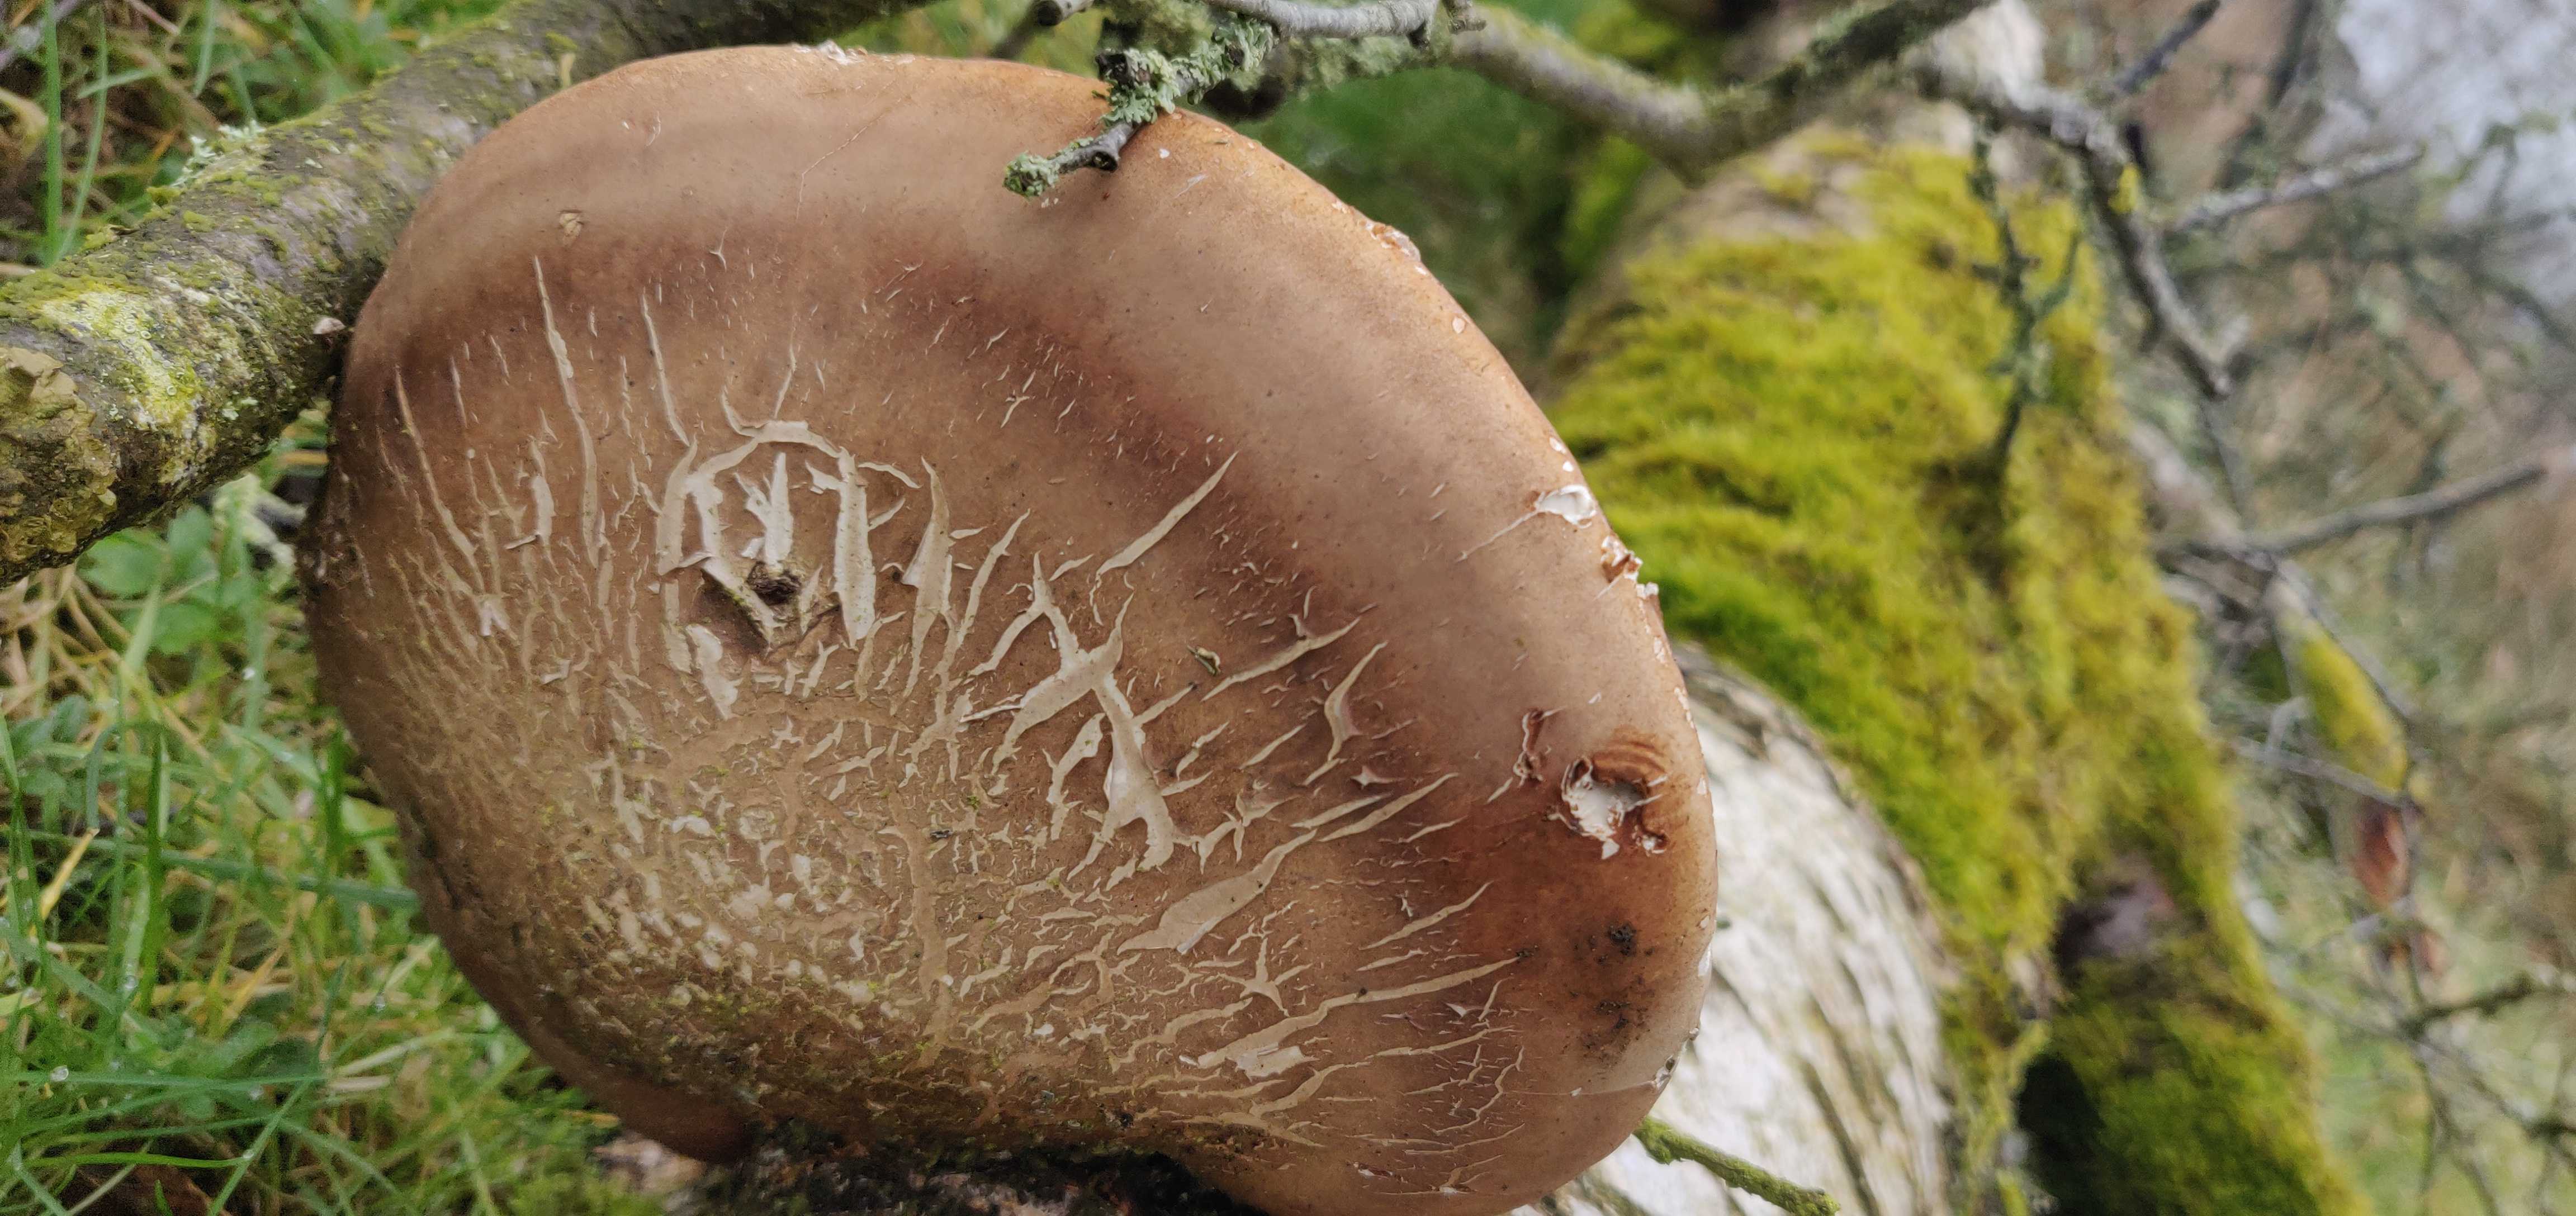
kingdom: Fungi
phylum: Basidiomycota
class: Agaricomycetes
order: Polyporales
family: Fomitopsidaceae
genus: Fomitopsis
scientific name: Fomitopsis betulina
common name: birkeporesvamp
